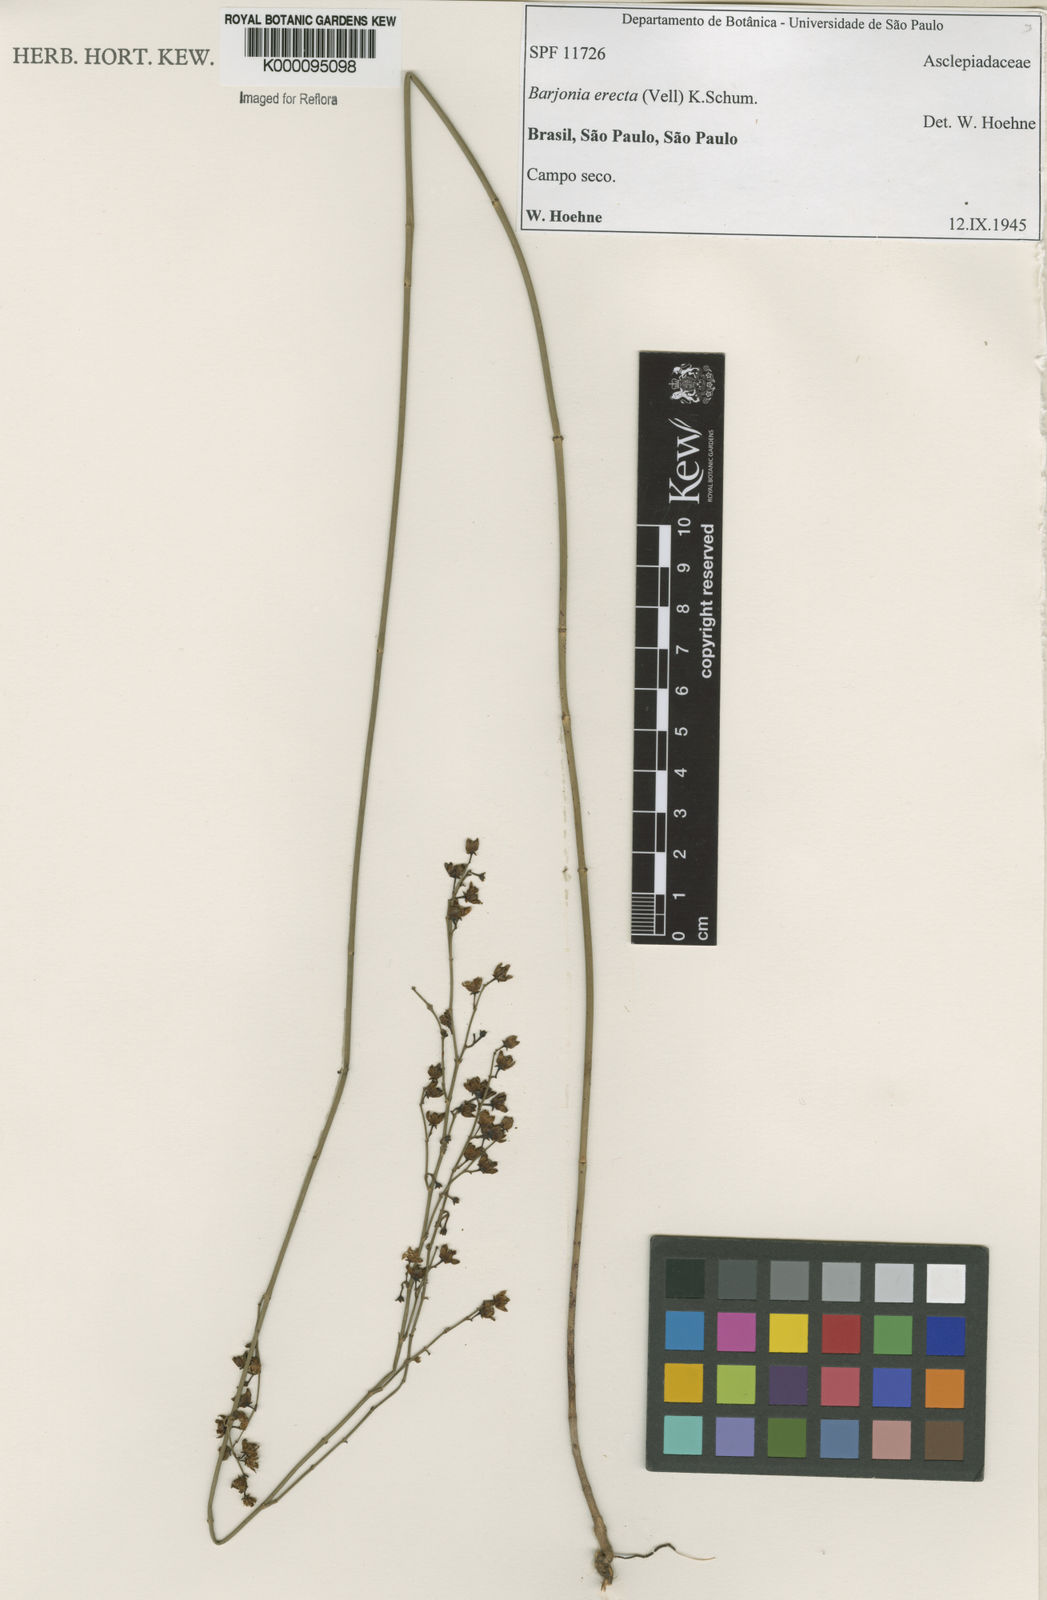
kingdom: Plantae
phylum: Tracheophyta
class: Magnoliopsida
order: Gentianales
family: Apocynaceae
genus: Barjonia
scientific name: Barjonia erecta
